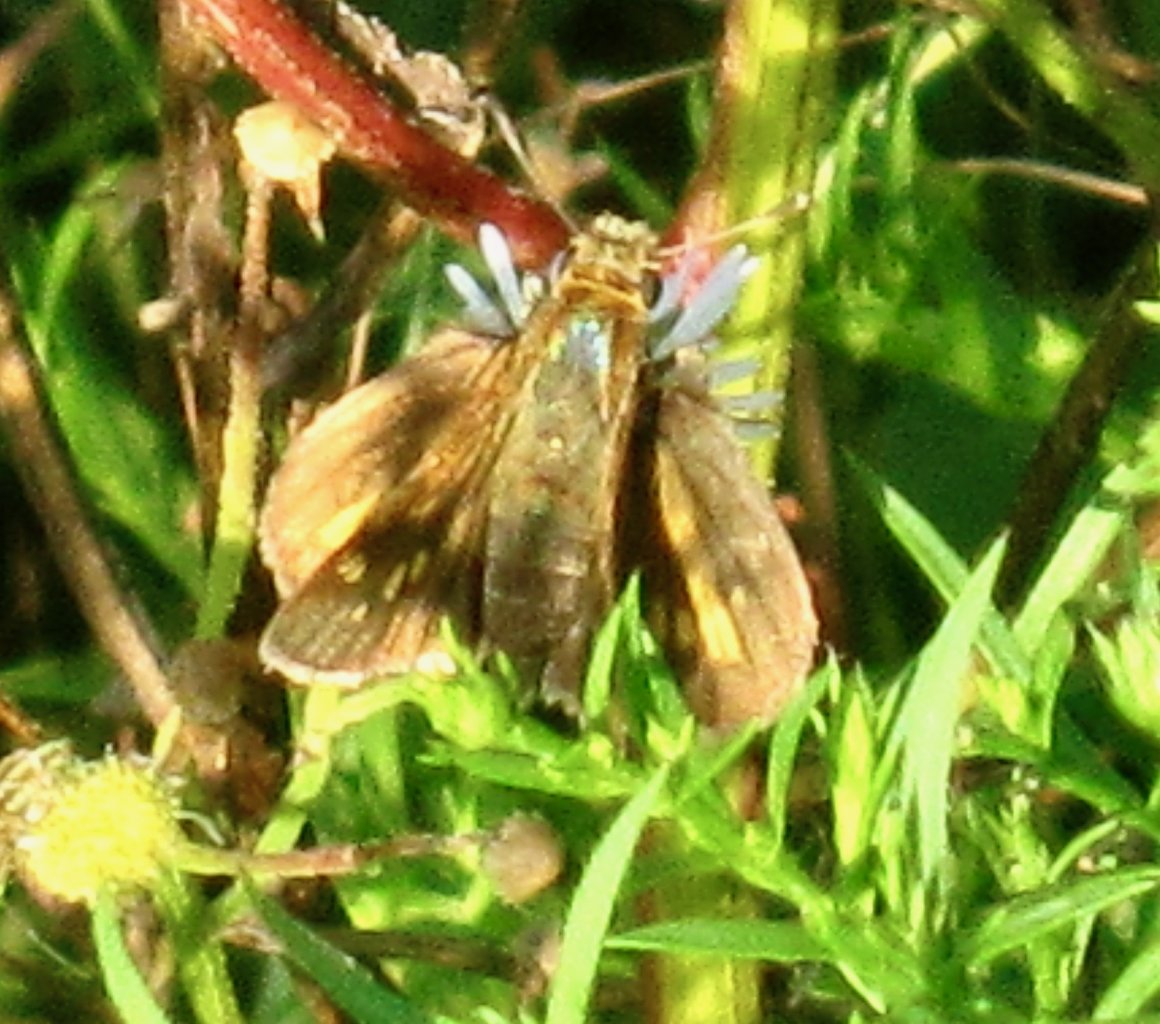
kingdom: Animalia
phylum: Arthropoda
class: Insecta
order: Lepidoptera
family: Hesperiidae
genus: Polites
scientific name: Polites coras
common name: Peck's Skipper
